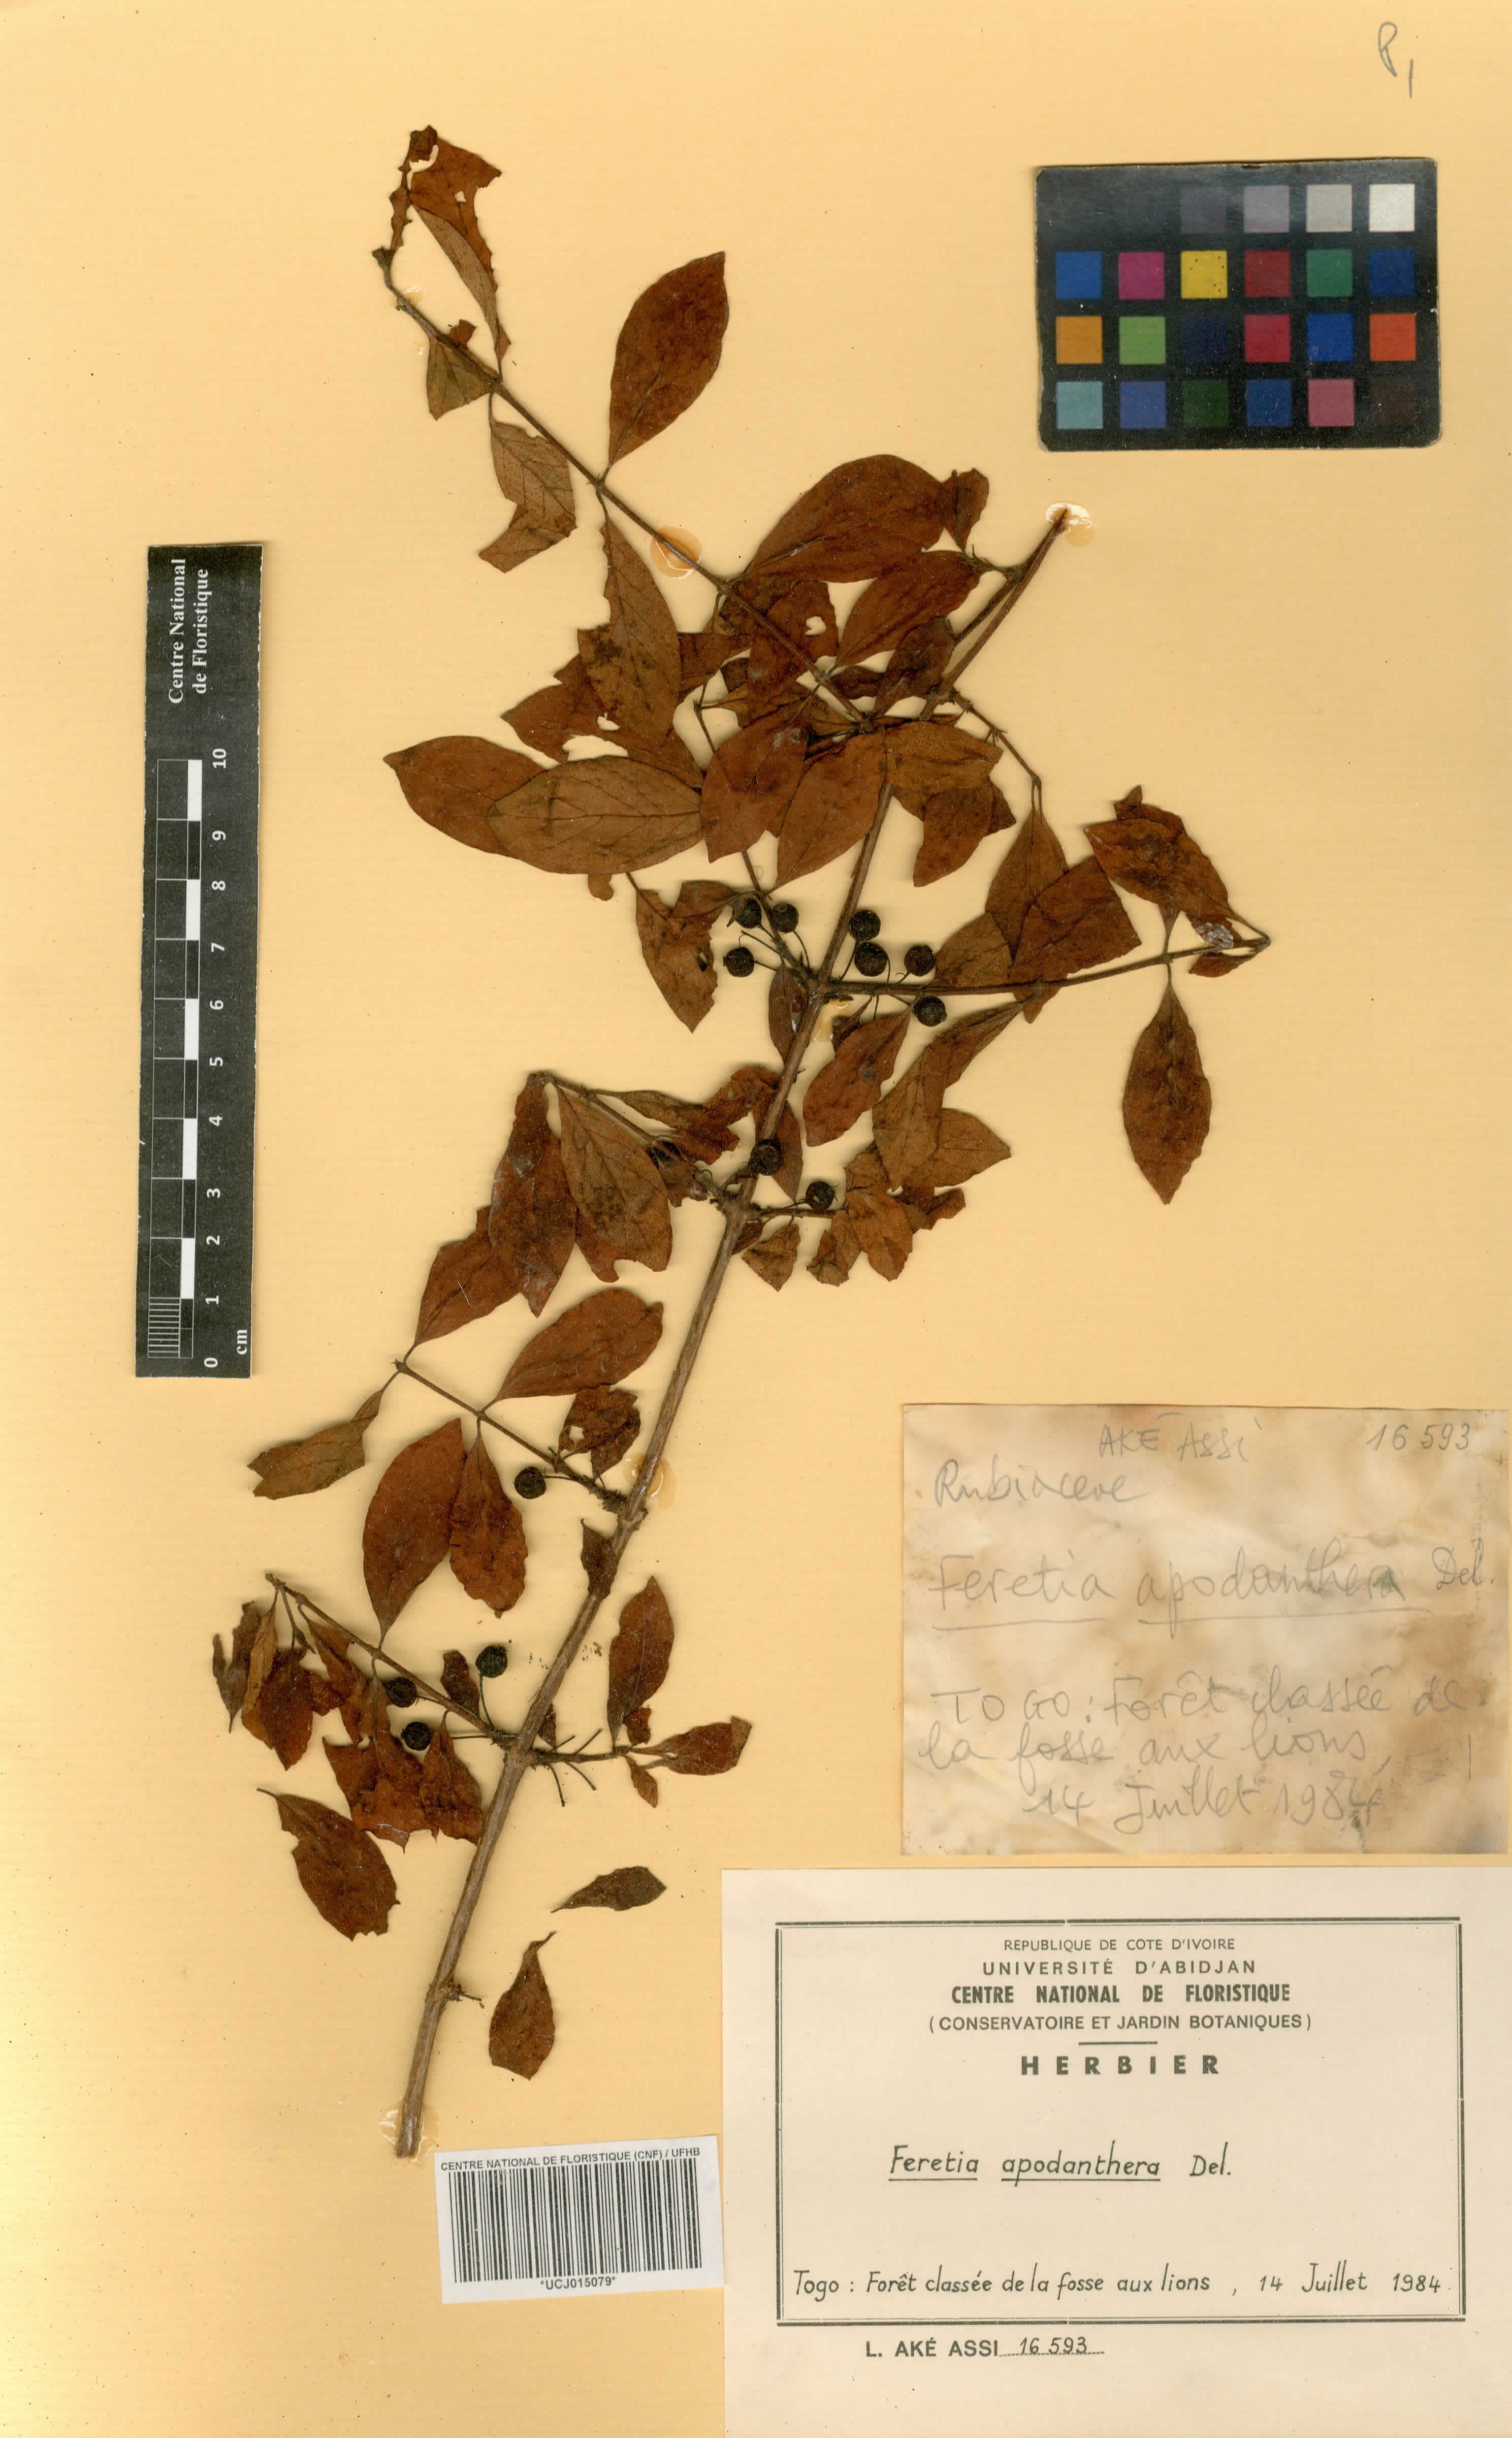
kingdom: Plantae
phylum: Tracheophyta
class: Magnoliopsida
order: Gentianales
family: Rubiaceae
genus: Feretia
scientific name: Feretia apodanthera
